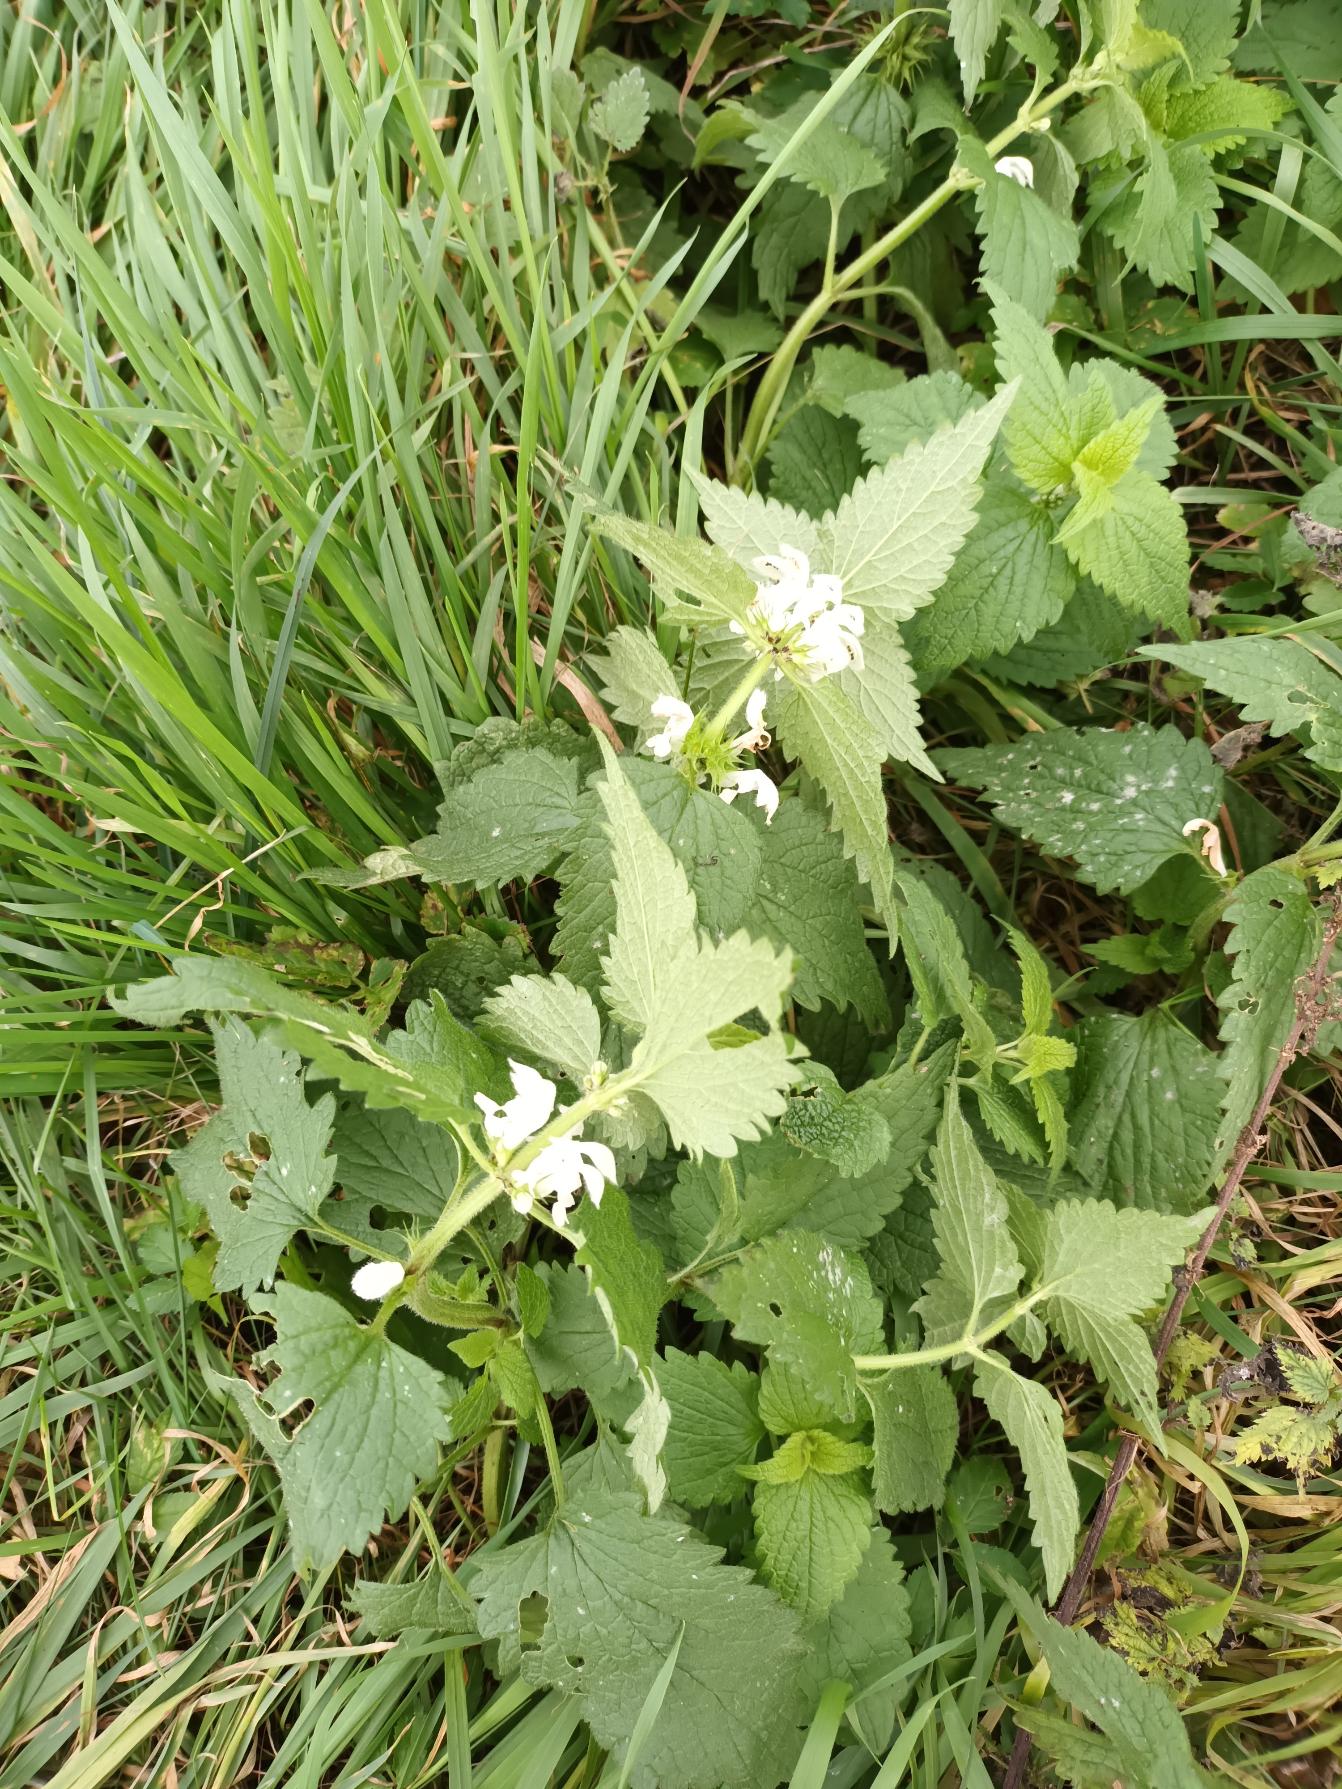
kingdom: Plantae
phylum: Tracheophyta
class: Magnoliopsida
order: Lamiales
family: Lamiaceae
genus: Lamium
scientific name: Lamium album
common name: Døvnælde
